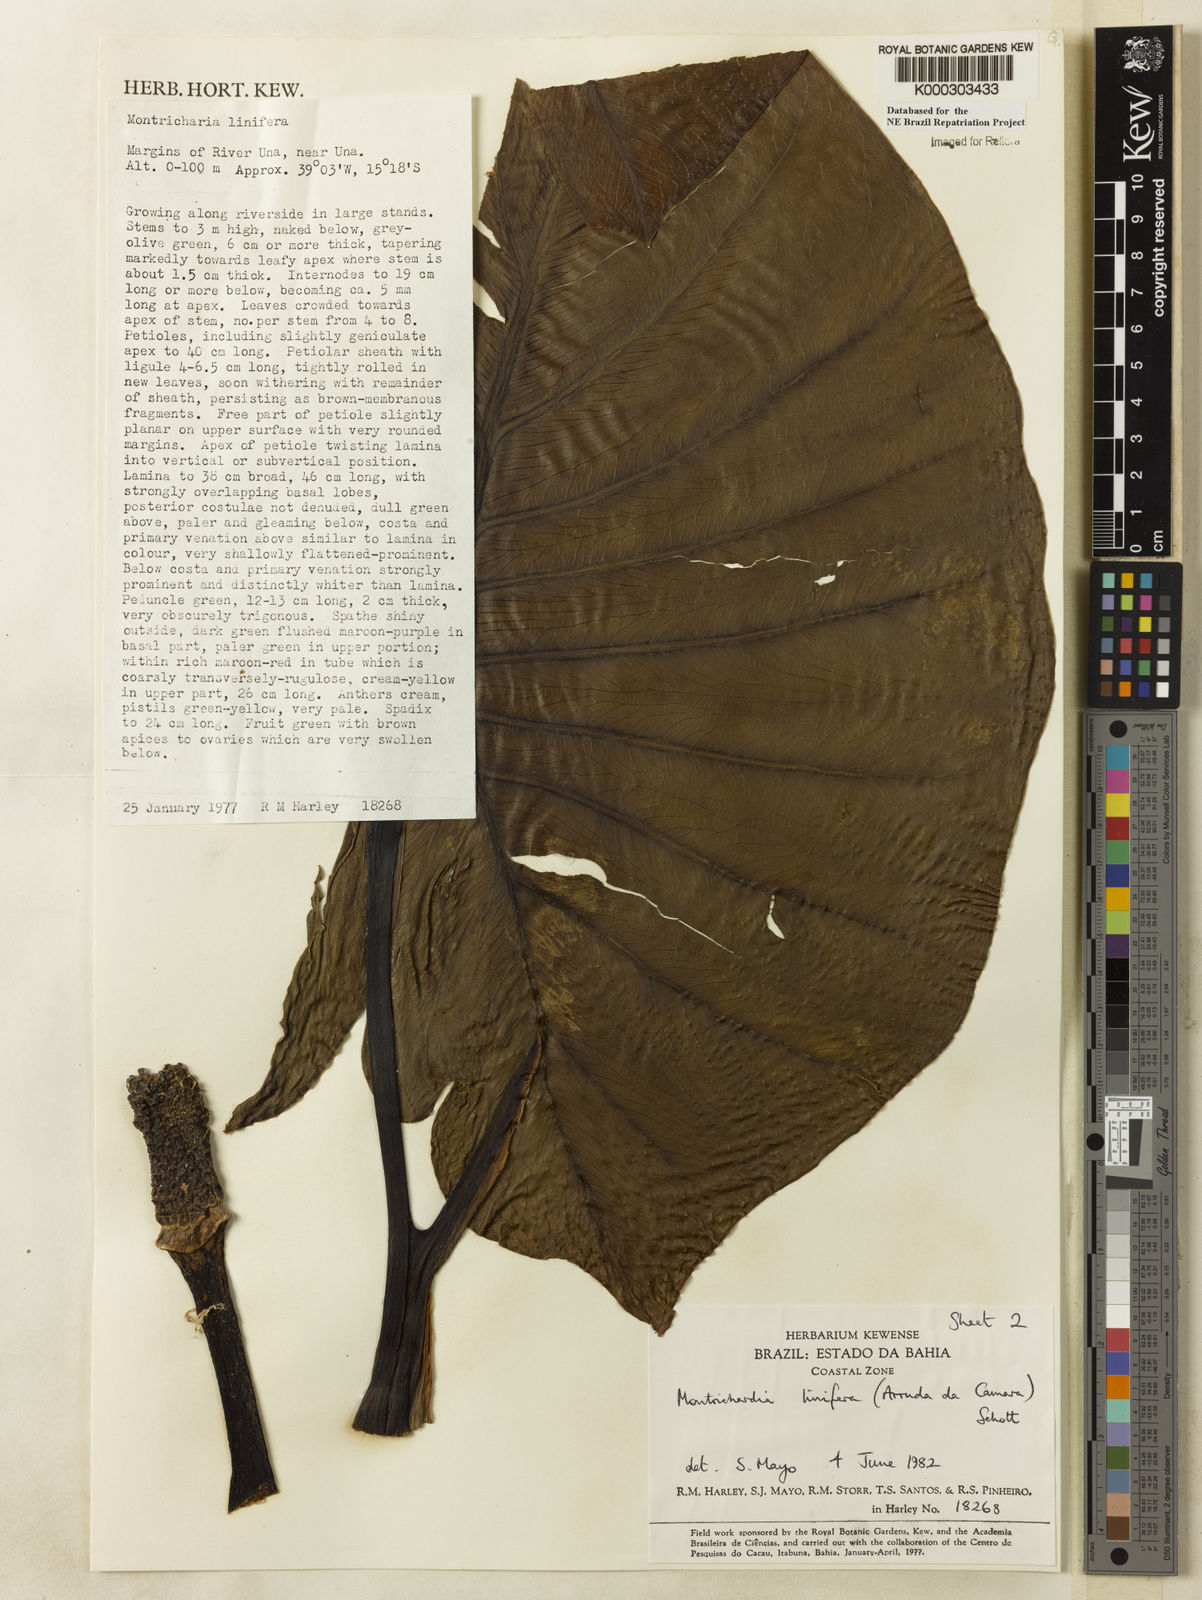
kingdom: Plantae
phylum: Tracheophyta
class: Liliopsida
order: Alismatales
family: Araceae
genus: Montrichardia
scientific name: Montrichardia linifera
